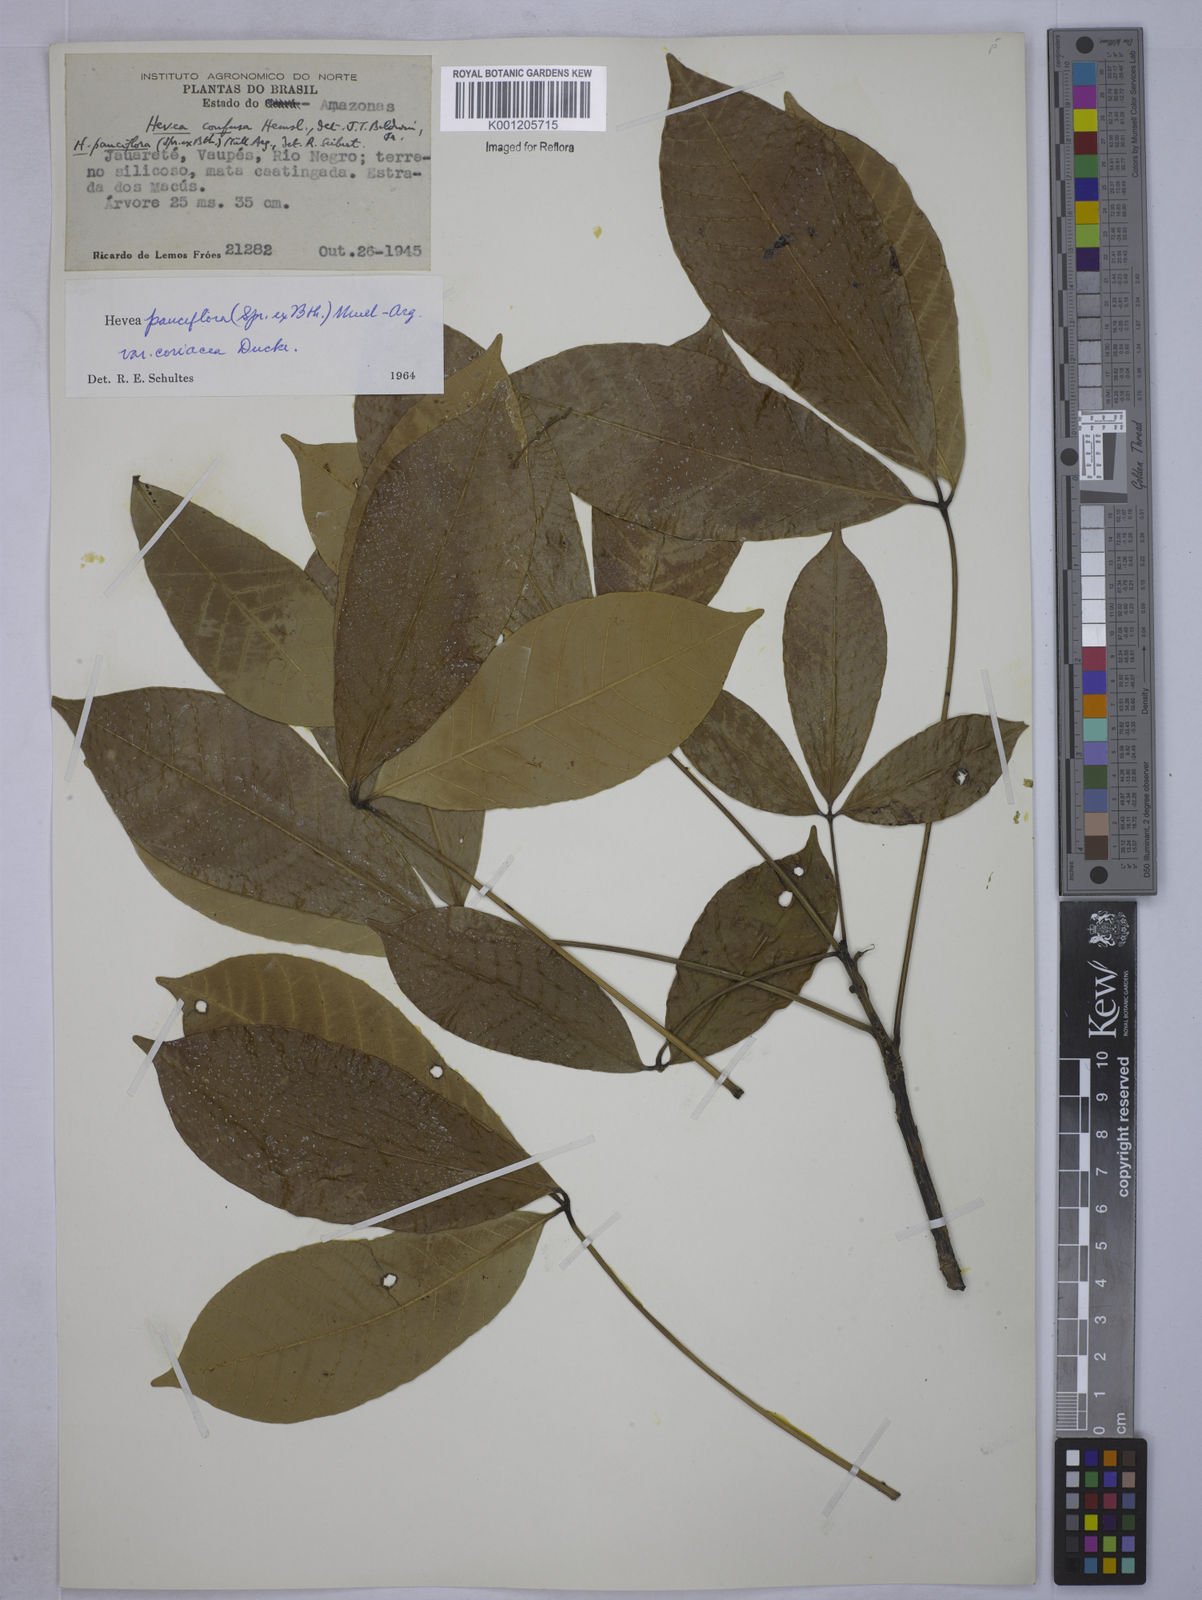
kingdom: Plantae
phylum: Tracheophyta
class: Magnoliopsida
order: Malpighiales
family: Euphorbiaceae
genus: Hevea
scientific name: Hevea pauciflora
